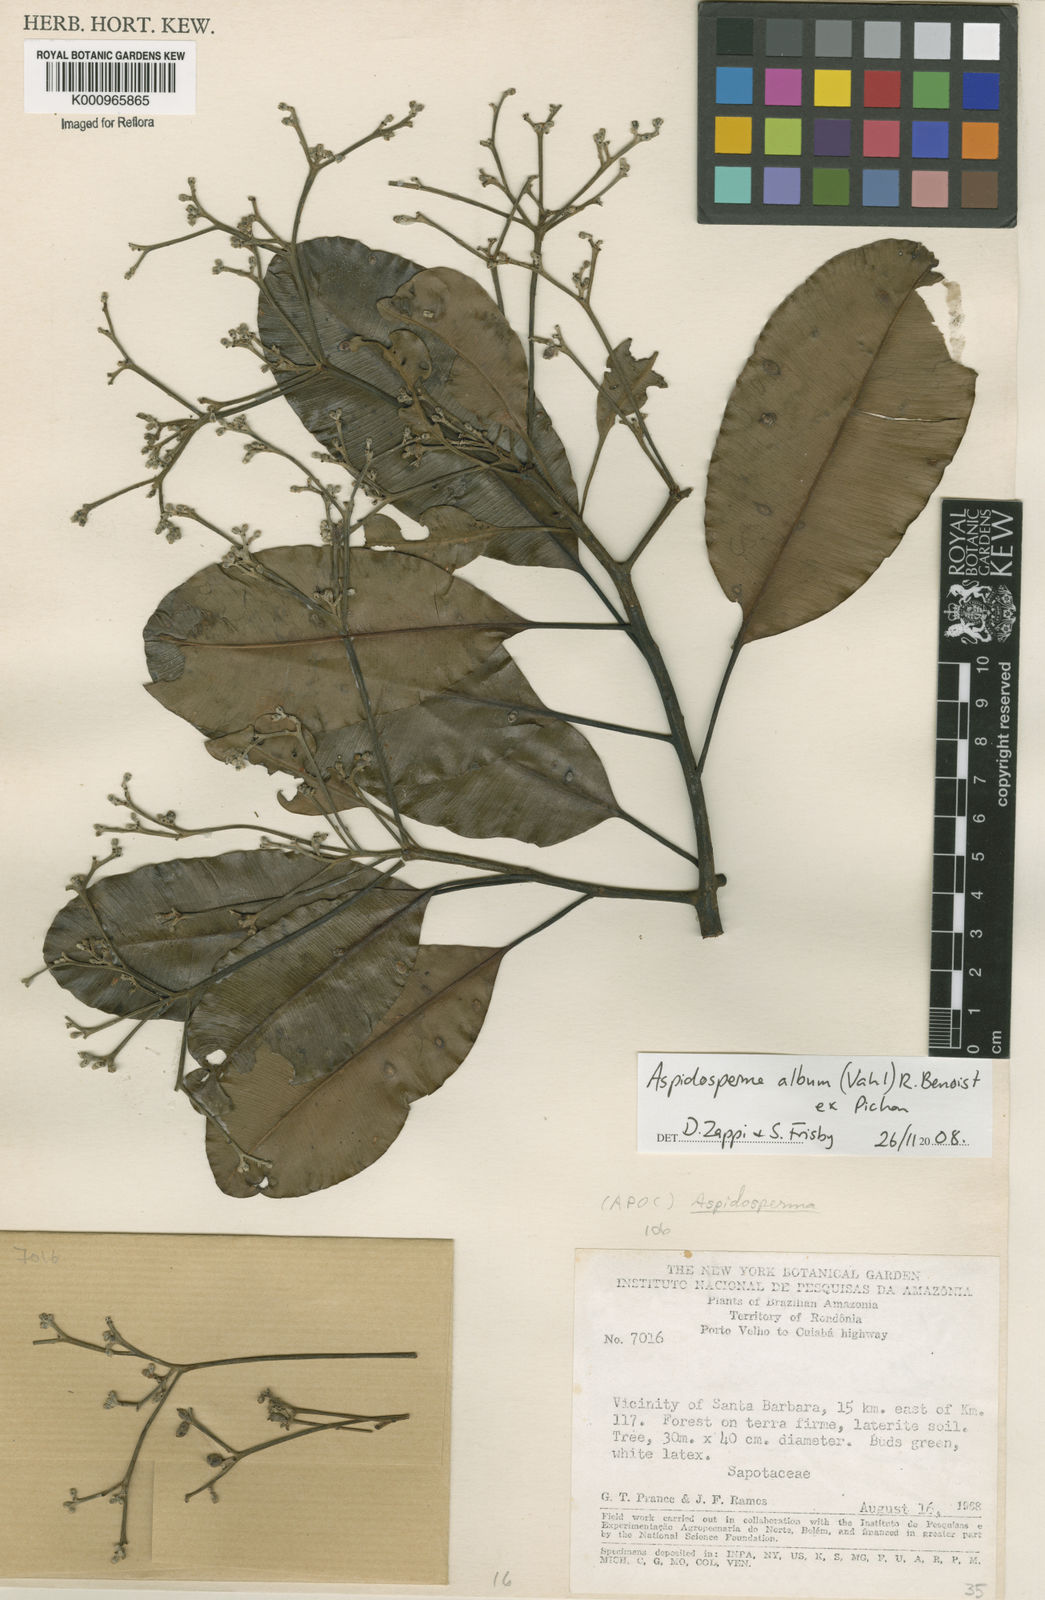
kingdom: Plantae
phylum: Tracheophyta
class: Magnoliopsida
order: Gentianales
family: Apocynaceae
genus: Aspidosperma
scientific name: Aspidosperma album
